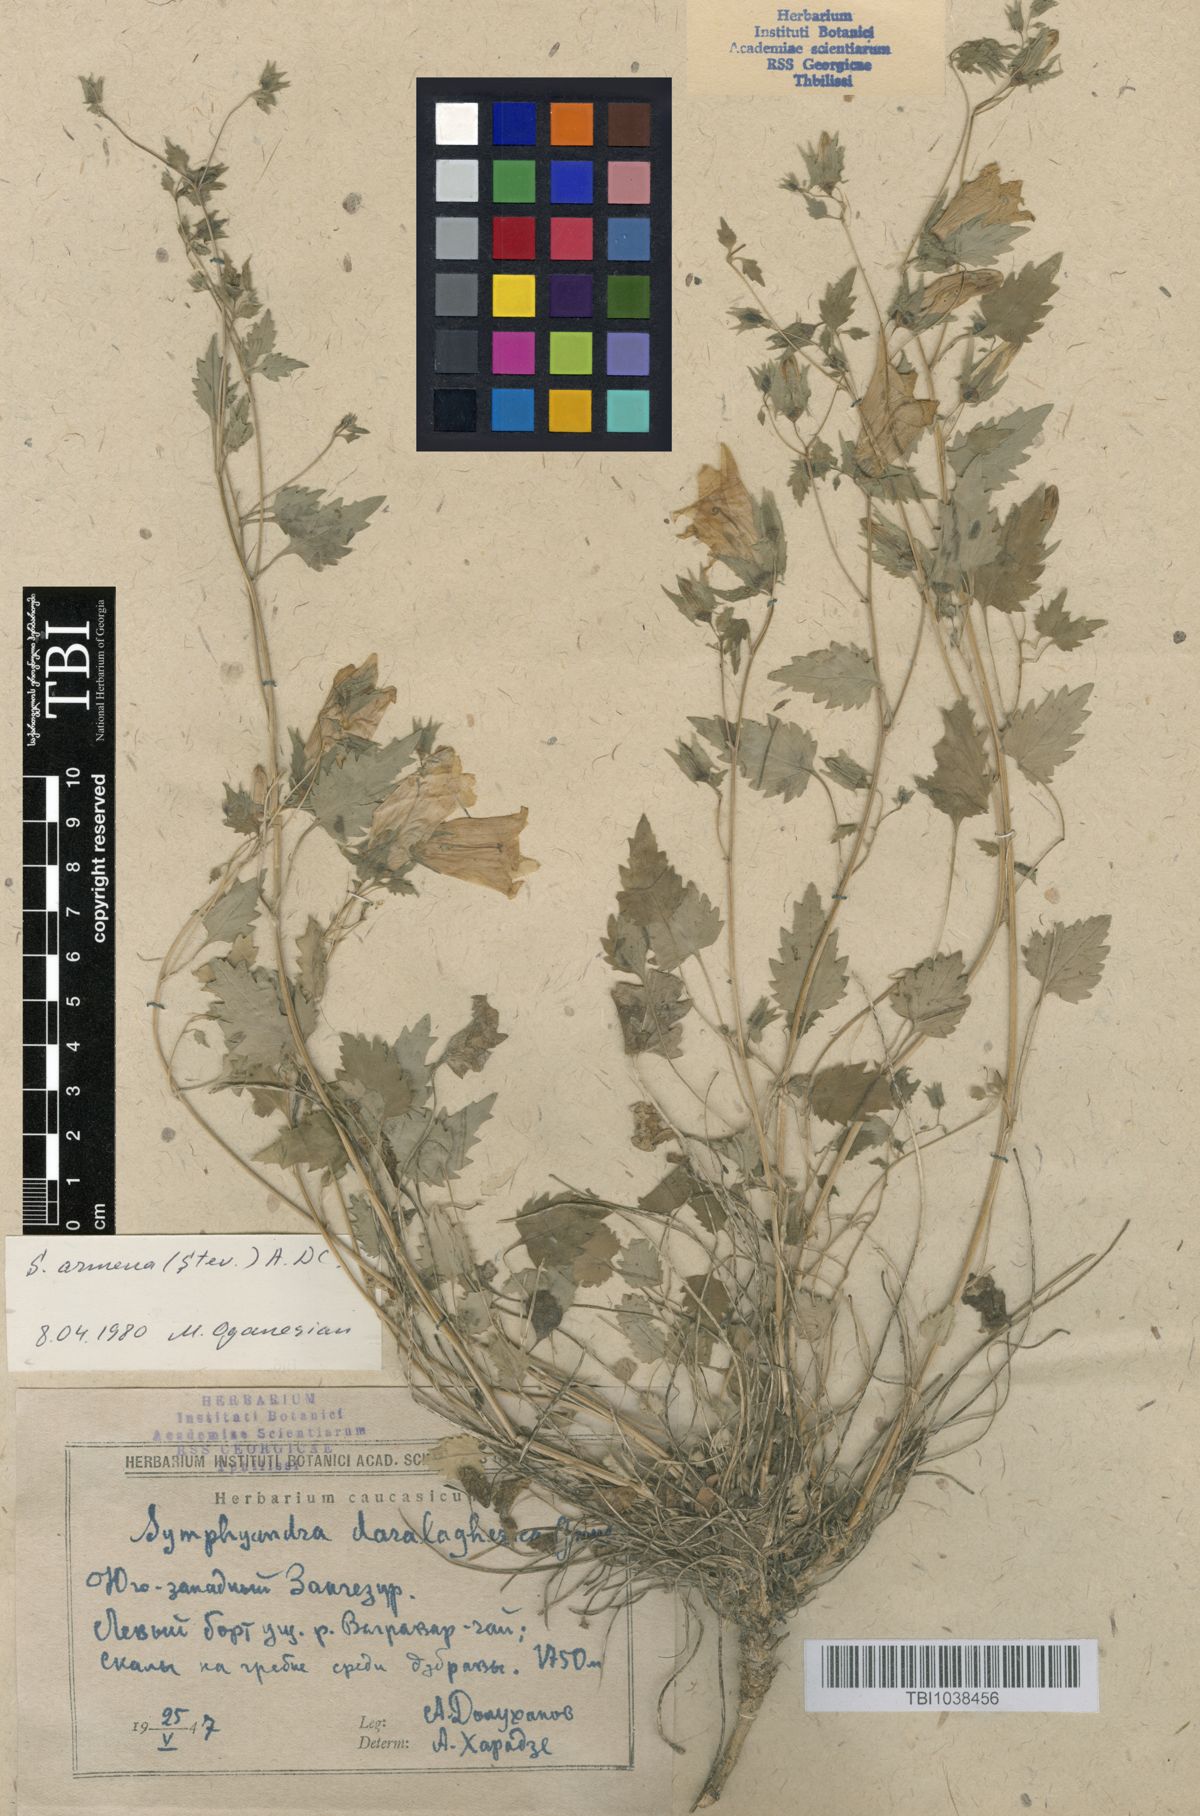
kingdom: Plantae
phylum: Tracheophyta
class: Magnoliopsida
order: Asterales
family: Campanulaceae
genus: Campanula
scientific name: Campanula armena
